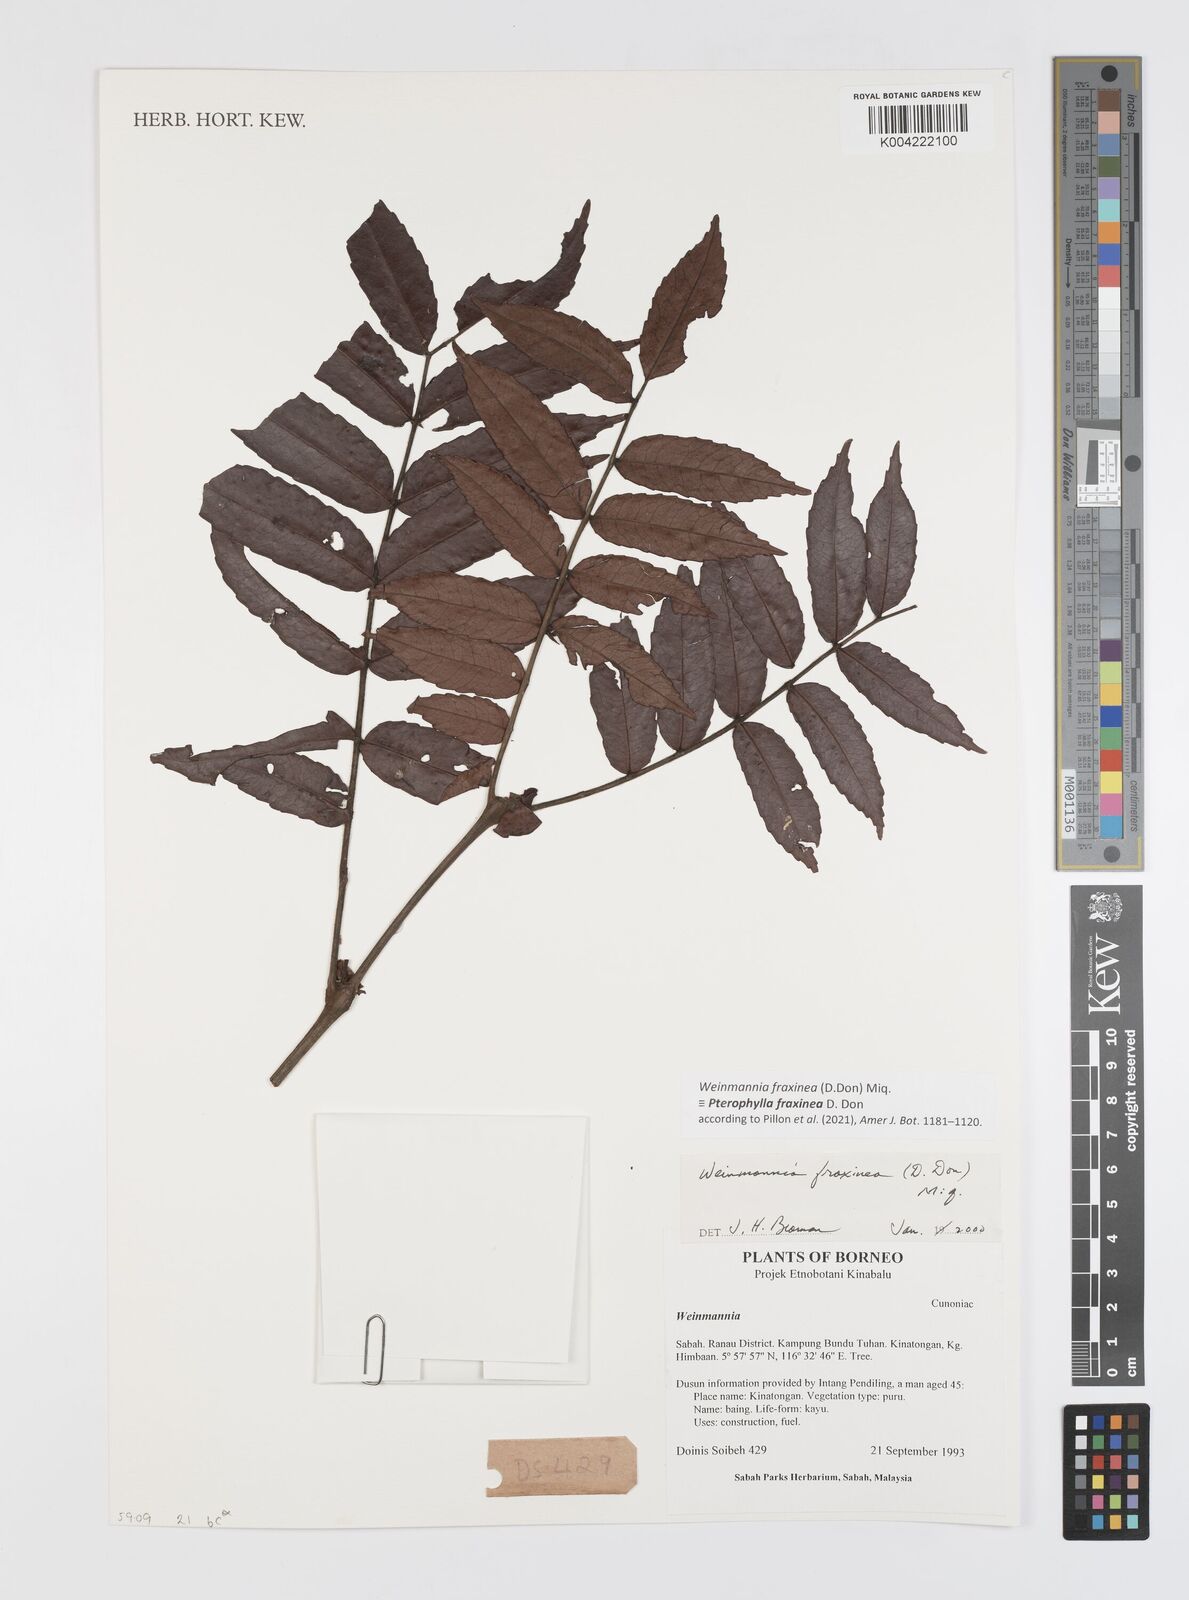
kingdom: Plantae
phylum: Tracheophyta
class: Magnoliopsida
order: Oxalidales
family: Cunoniaceae
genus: Pterophylla
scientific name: Pterophylla fraxinea
